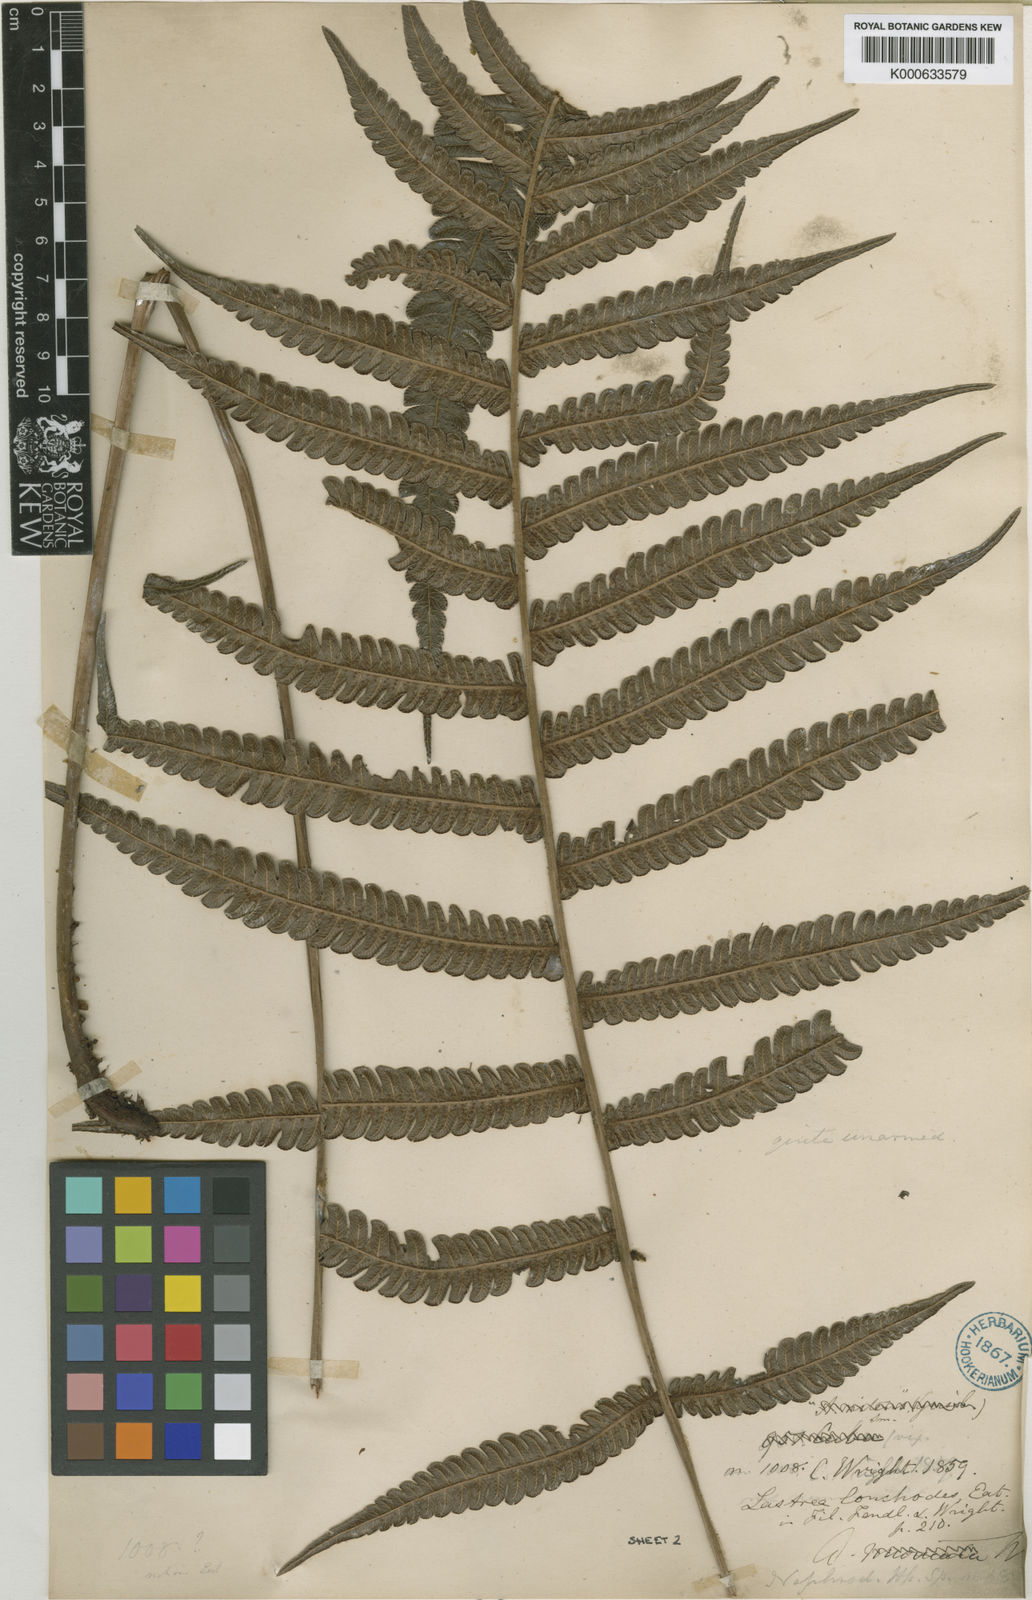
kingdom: Plantae
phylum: Tracheophyta
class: Polypodiopsida
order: Polypodiales
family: Thelypteridaceae
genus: Steiropteris
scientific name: Steiropteris lonchodes
